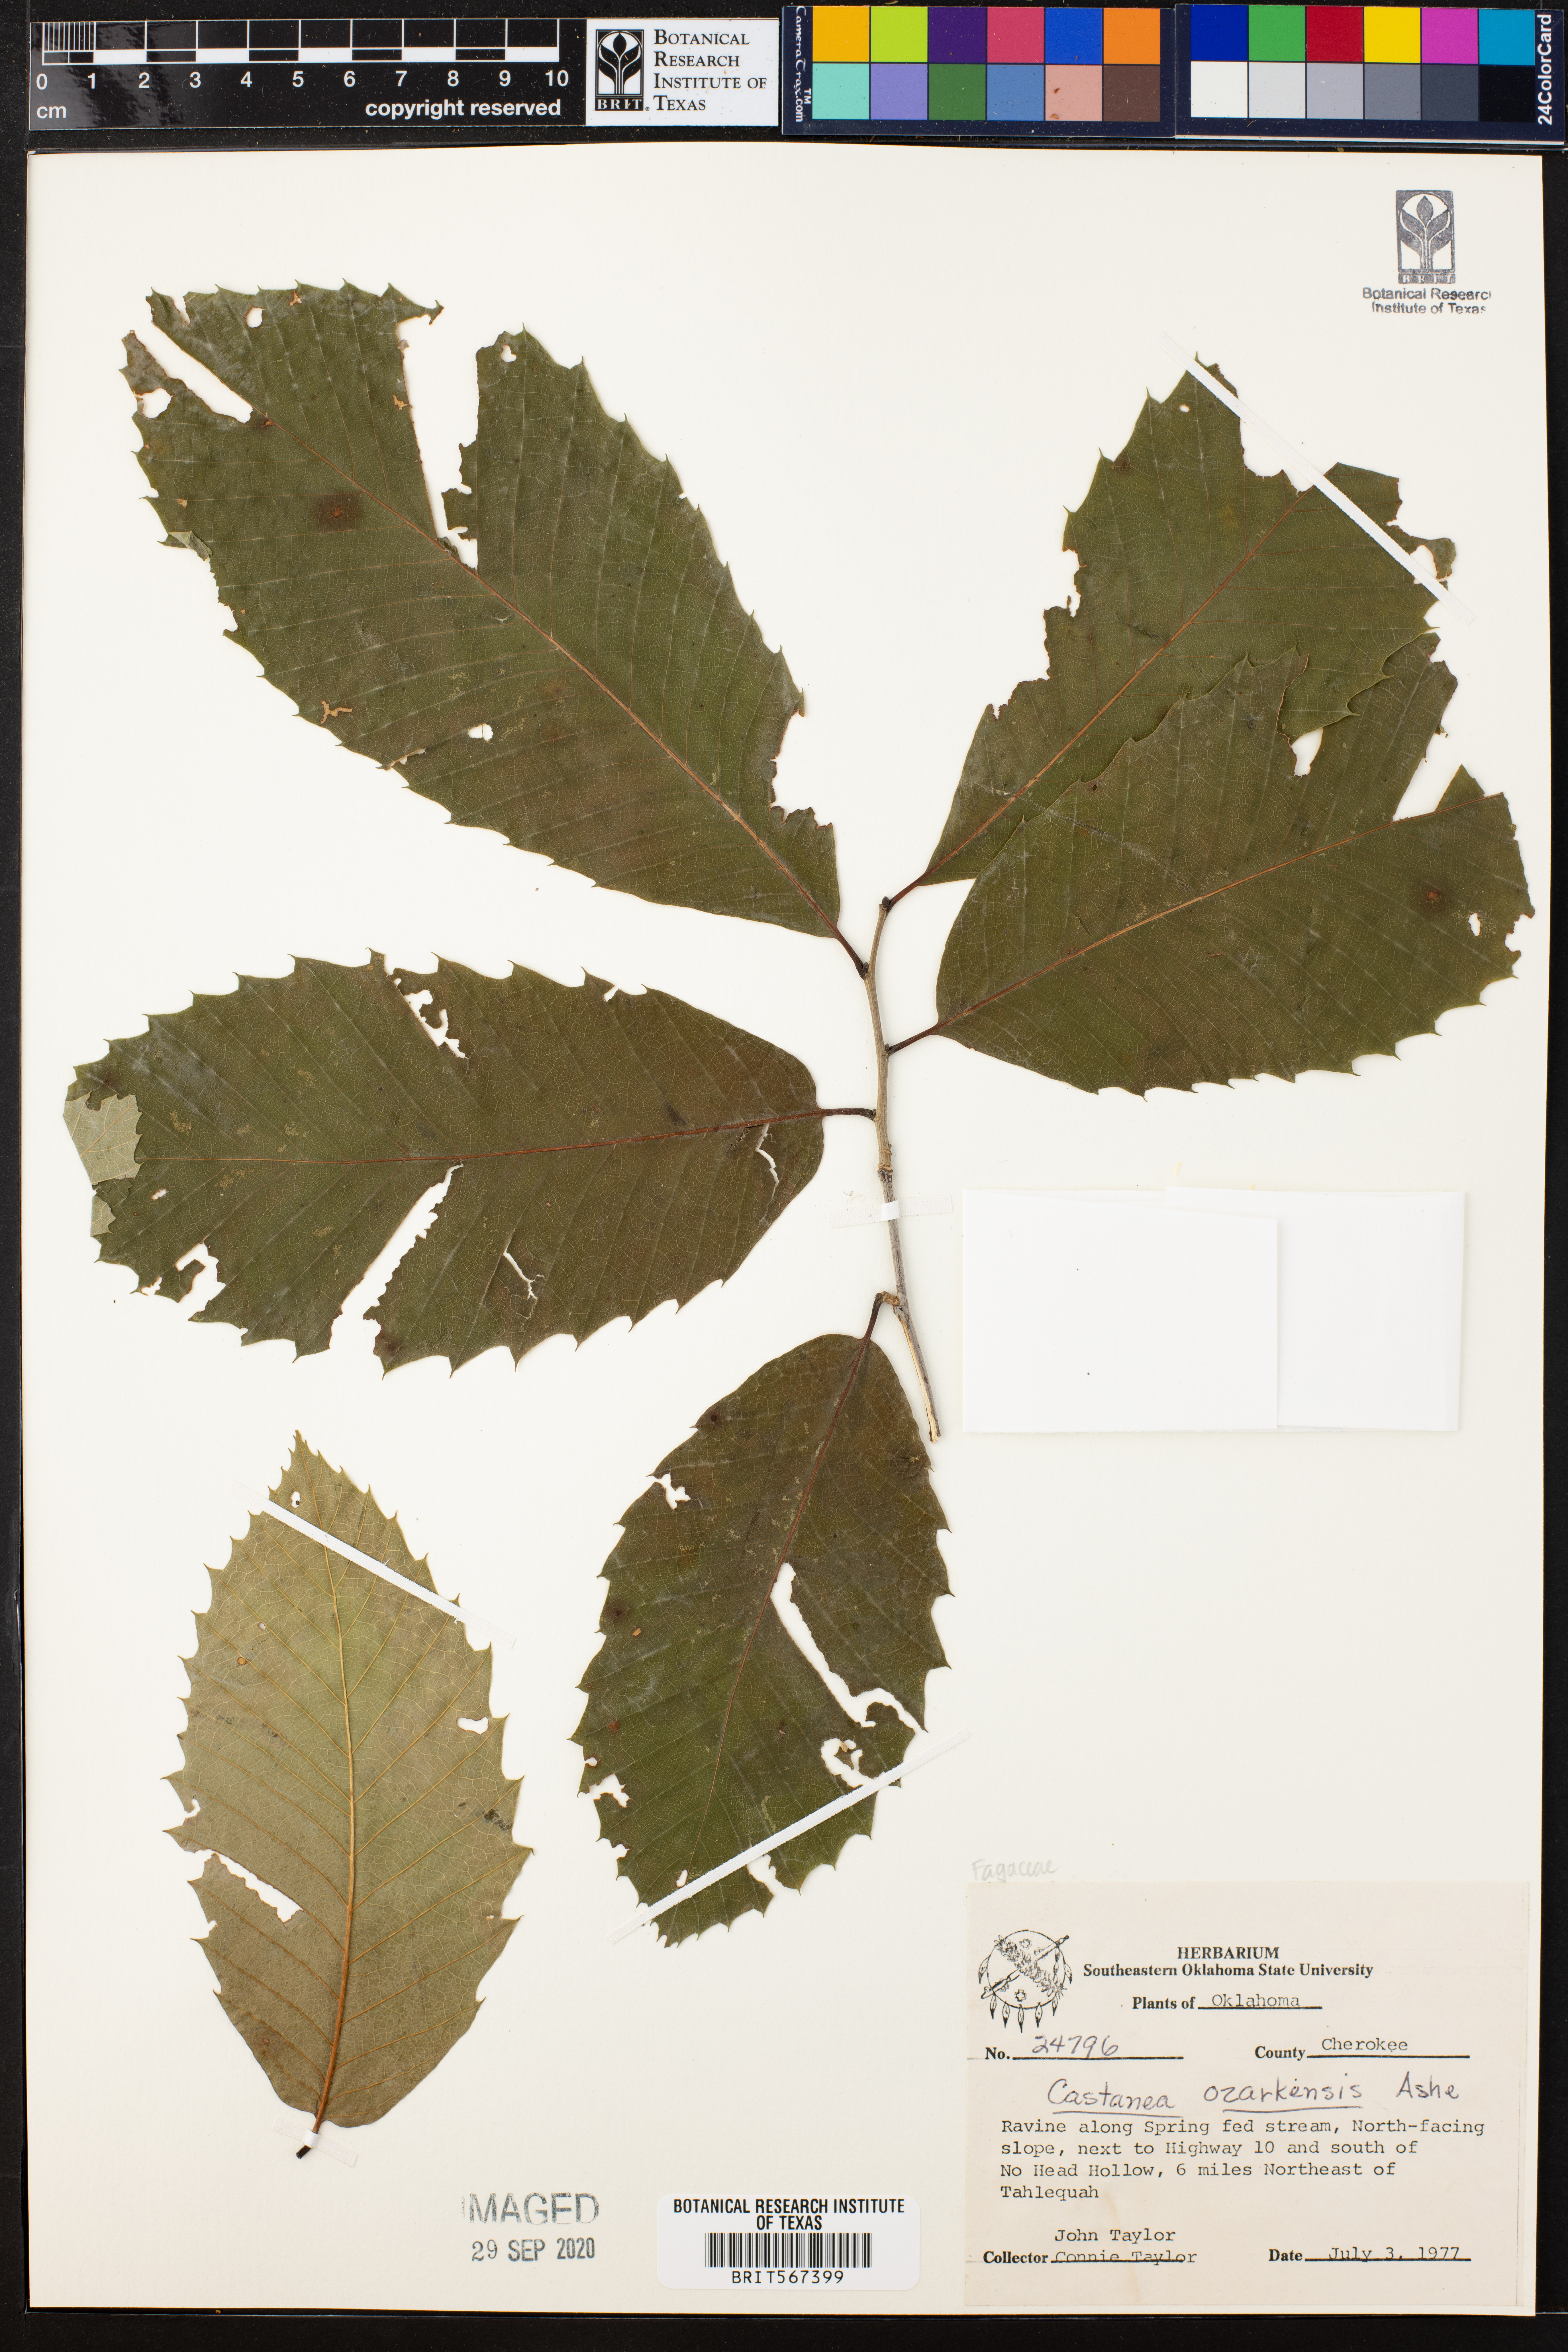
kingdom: Plantae
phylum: Tracheophyta
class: Magnoliopsida
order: Fagales
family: Fagaceae
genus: Castanea
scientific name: Castanea ozarkensis
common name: Ozark chinkapin
